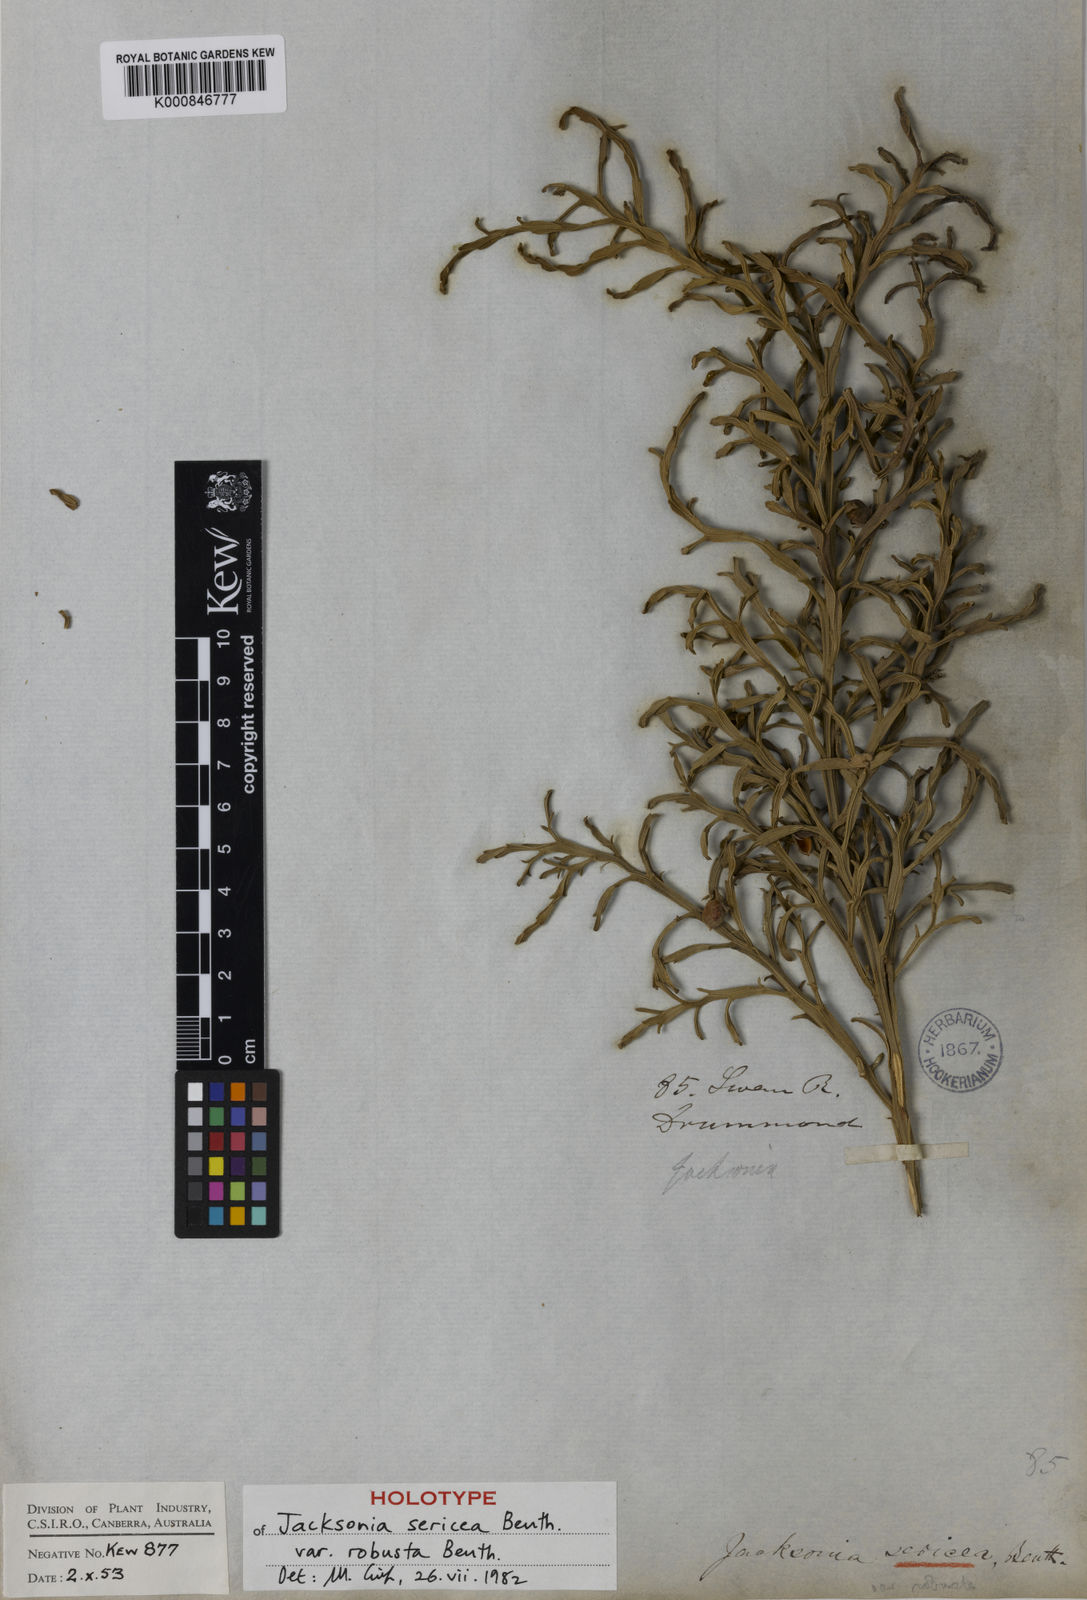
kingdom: Plantae
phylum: Tracheophyta
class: Magnoliopsida
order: Fabales
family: Fabaceae
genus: Jacksonia
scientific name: Jacksonia sericea
